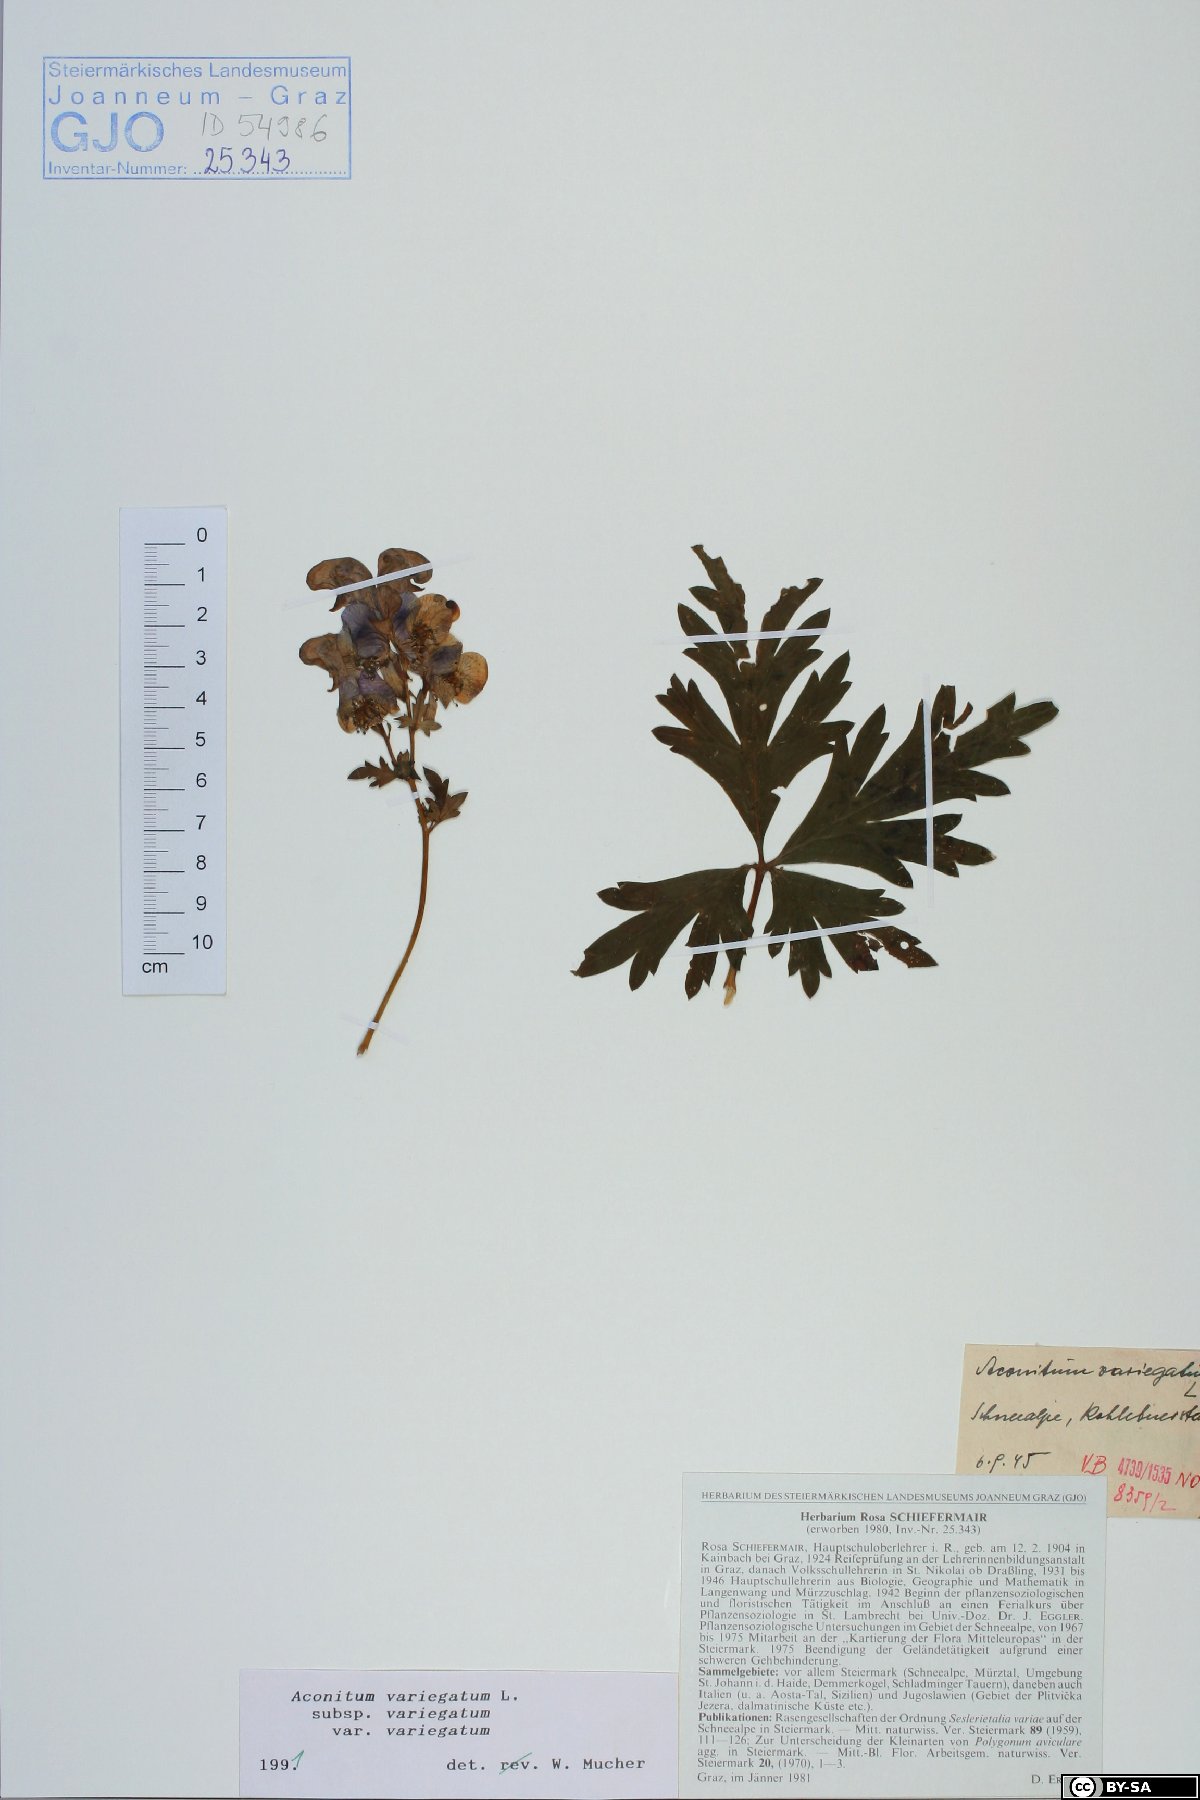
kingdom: Plantae
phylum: Tracheophyta
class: Magnoliopsida
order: Ranunculales
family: Ranunculaceae
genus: Aconitum
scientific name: Aconitum variegatum
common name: Manchurian monkshood
